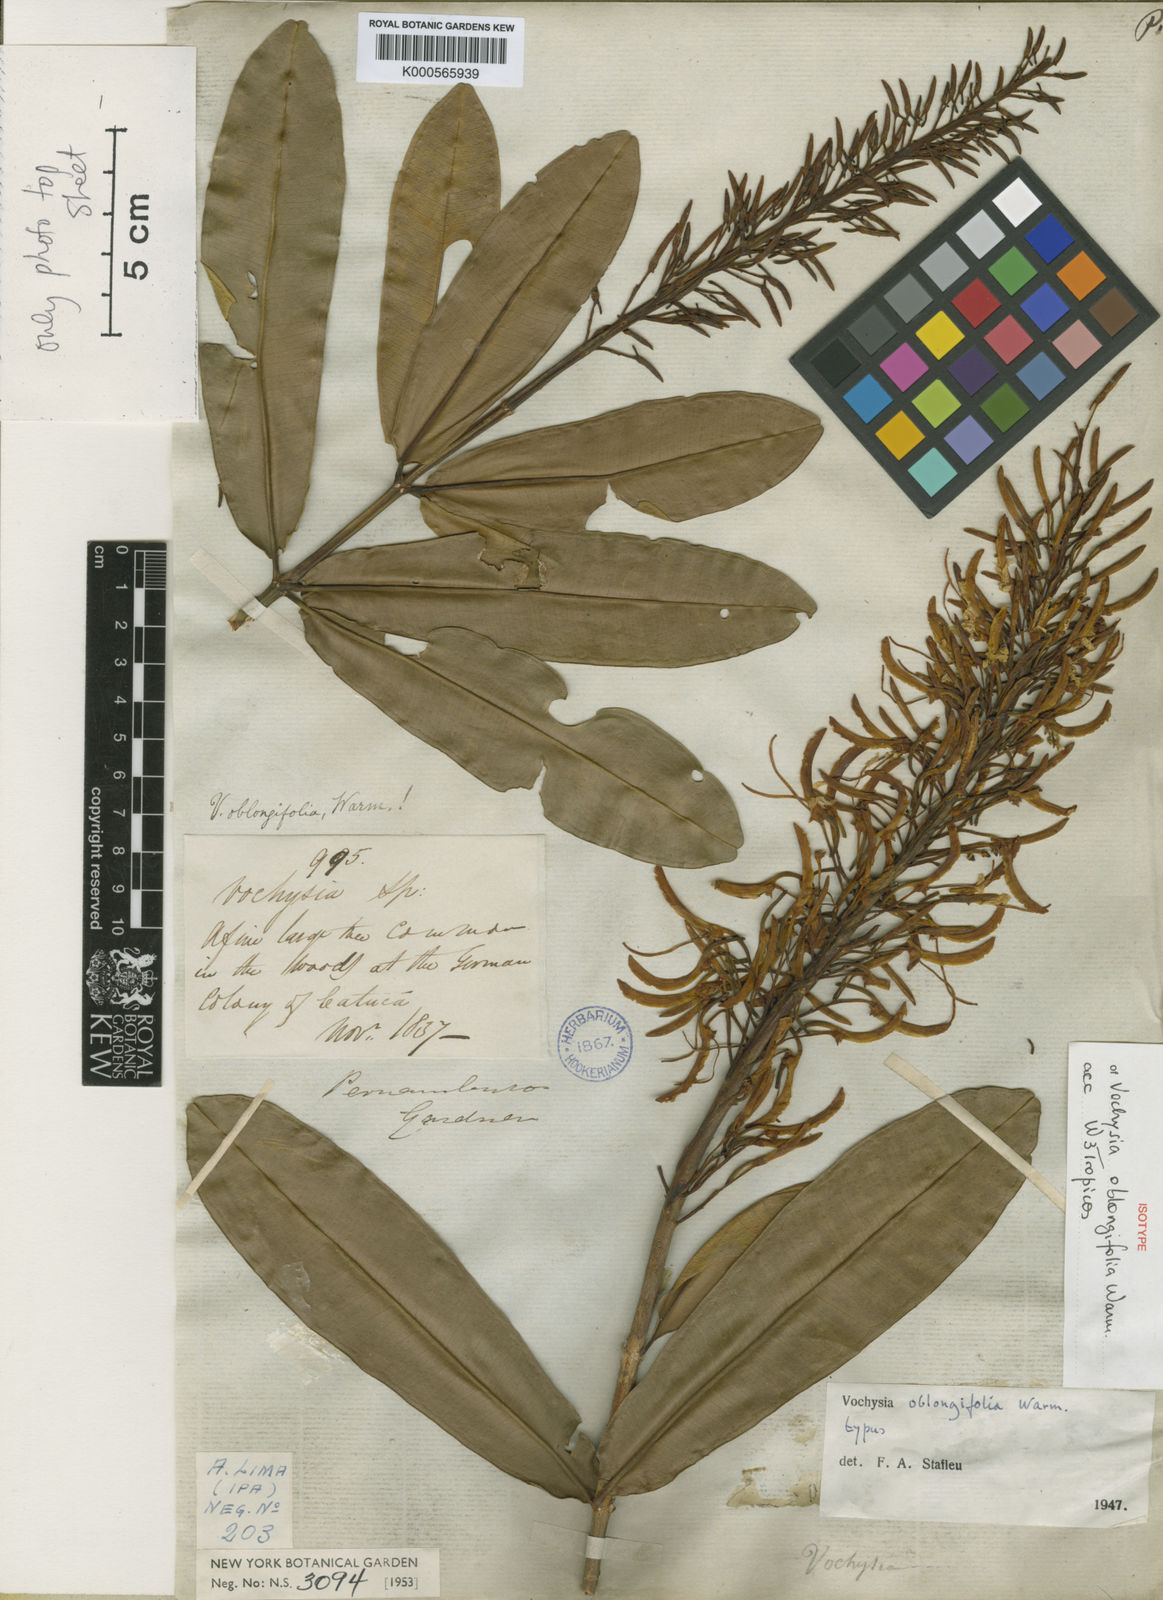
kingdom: Plantae
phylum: Tracheophyta
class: Magnoliopsida
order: Myrtales
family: Vochysiaceae
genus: Vochysia
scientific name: Vochysia oblongifolia
